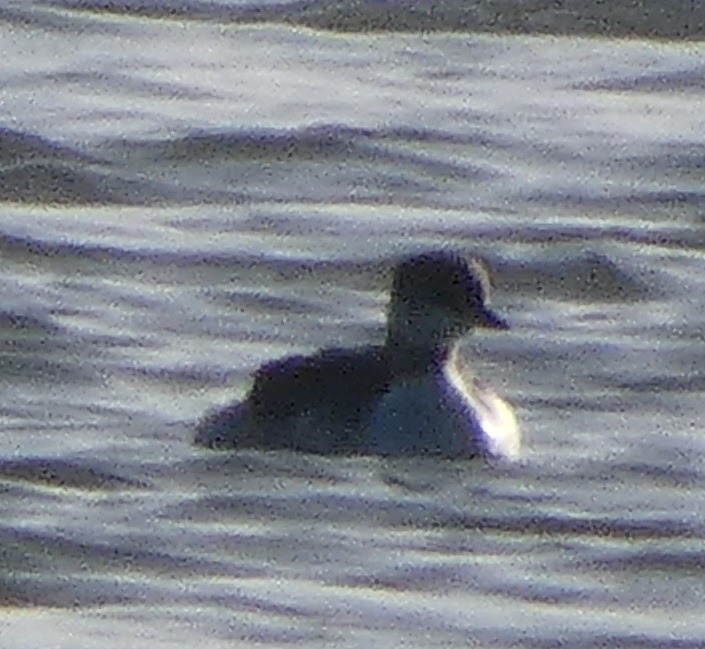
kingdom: Animalia
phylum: Chordata
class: Aves
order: Podicipediformes
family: Podicipedidae
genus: Podiceps
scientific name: Podiceps grisegena
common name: Gråstrubet lappedykker
